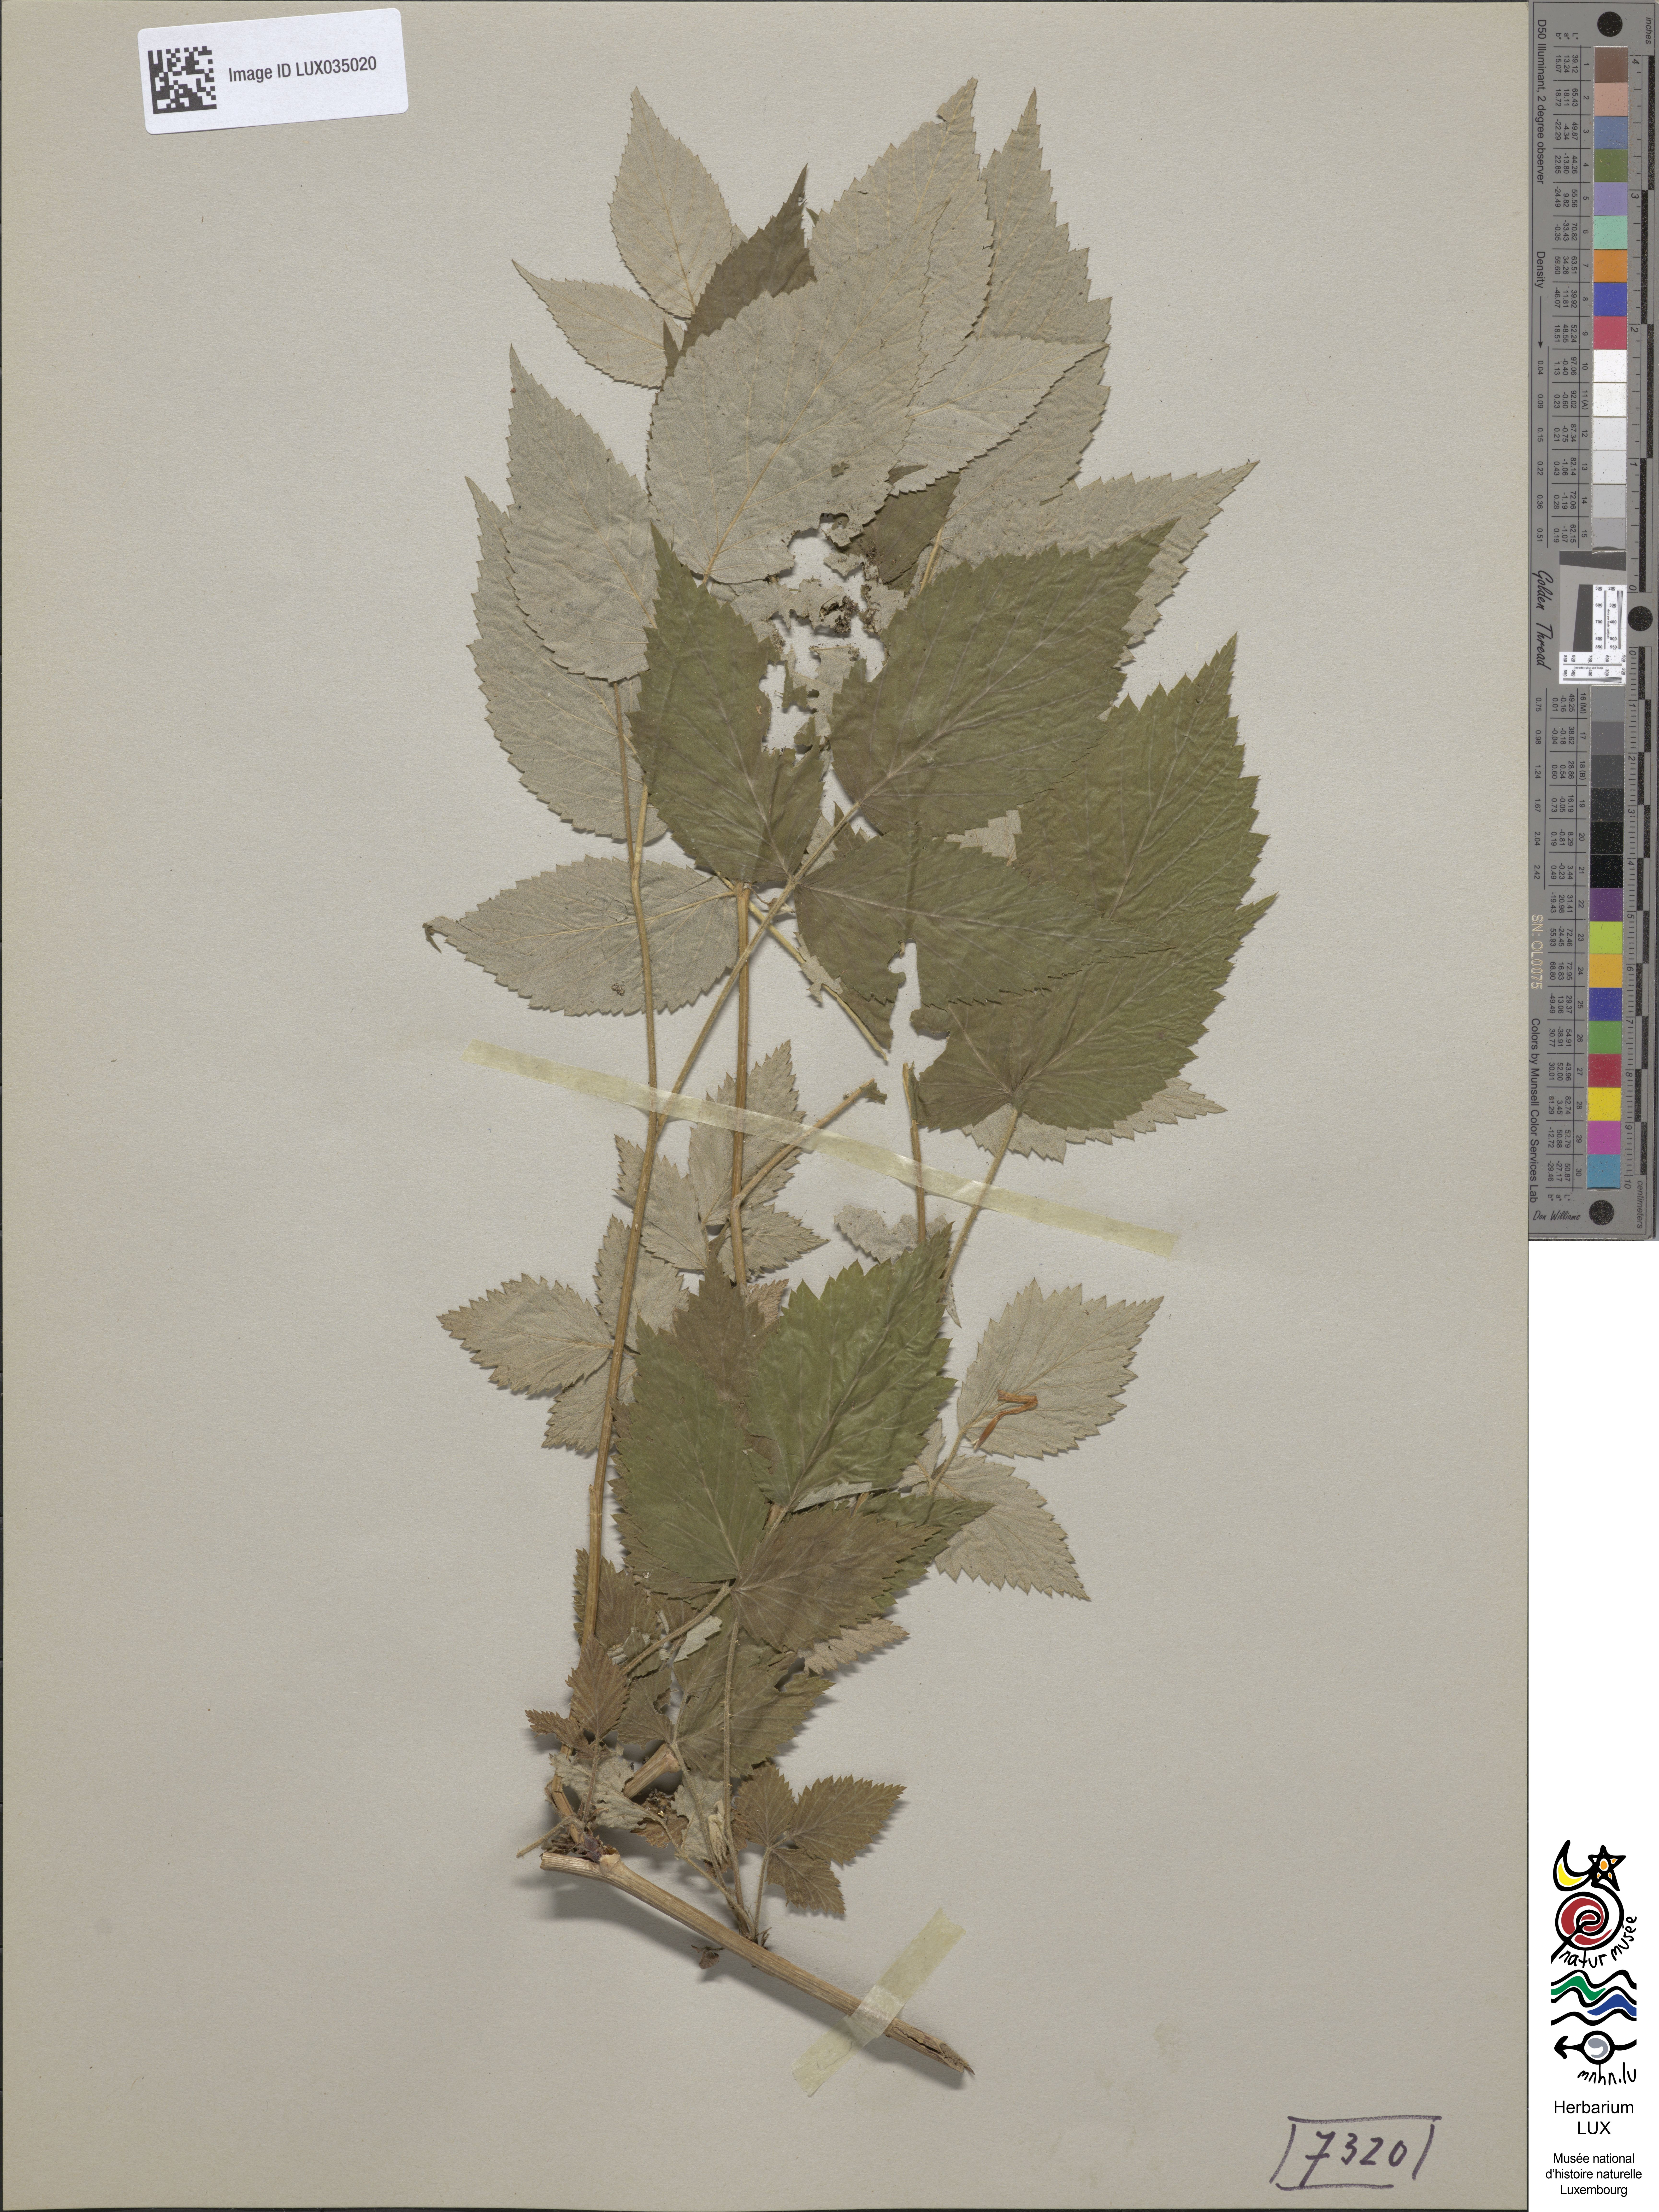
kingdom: Plantae
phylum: Tracheophyta
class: Magnoliopsida
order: Rosales
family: Rosaceae
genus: Rubus
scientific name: Rubus idaeus
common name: Raspberry
